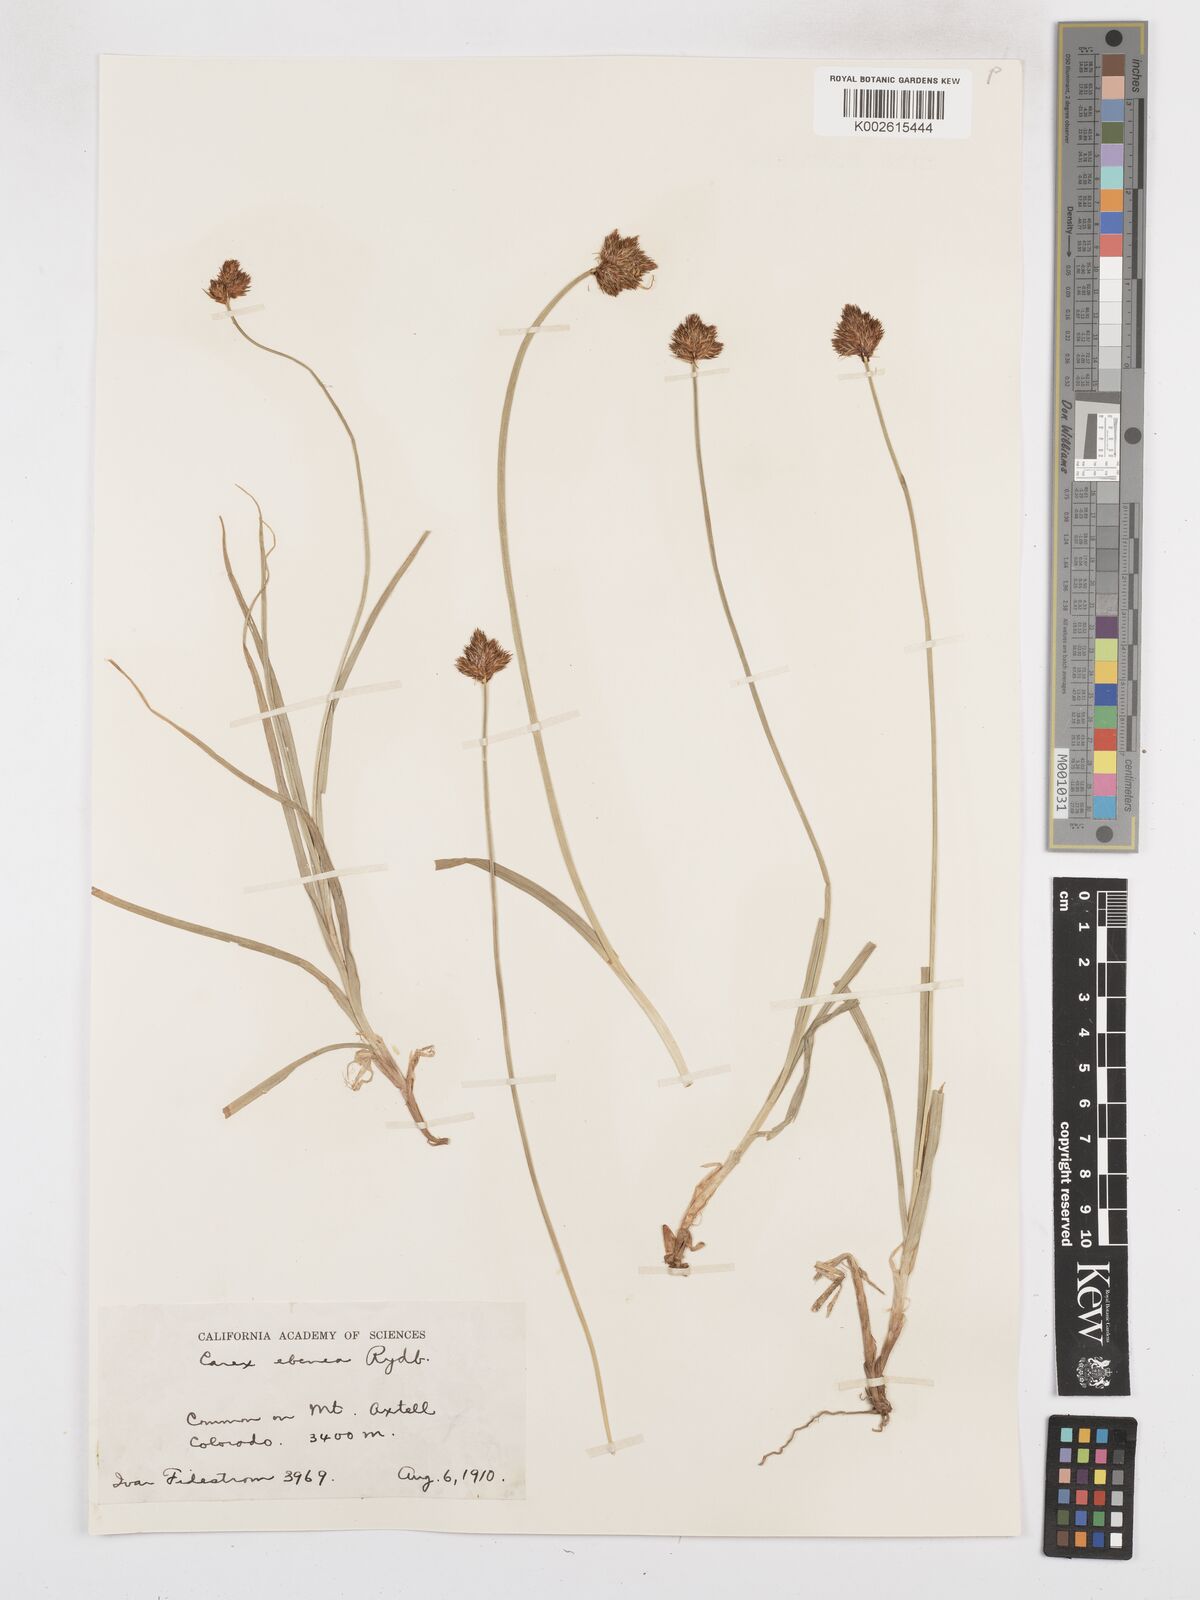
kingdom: Plantae
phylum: Tracheophyta
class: Liliopsida
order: Poales
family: Cyperaceae
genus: Carex
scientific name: Carex eburnea
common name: Bristle-leaved sedge
